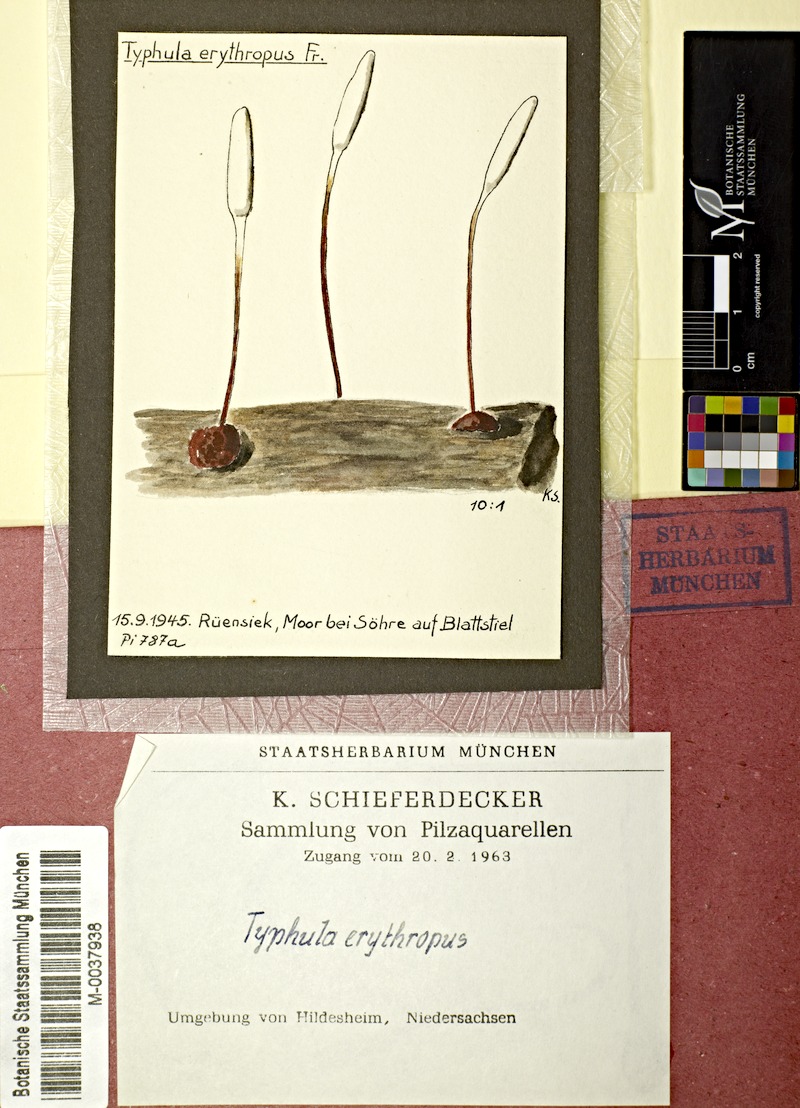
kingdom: Fungi
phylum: Basidiomycota
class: Agaricomycetes
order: Agaricales
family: Typhulaceae
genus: Typhula
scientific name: Typhula erythropus
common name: Redleg club
